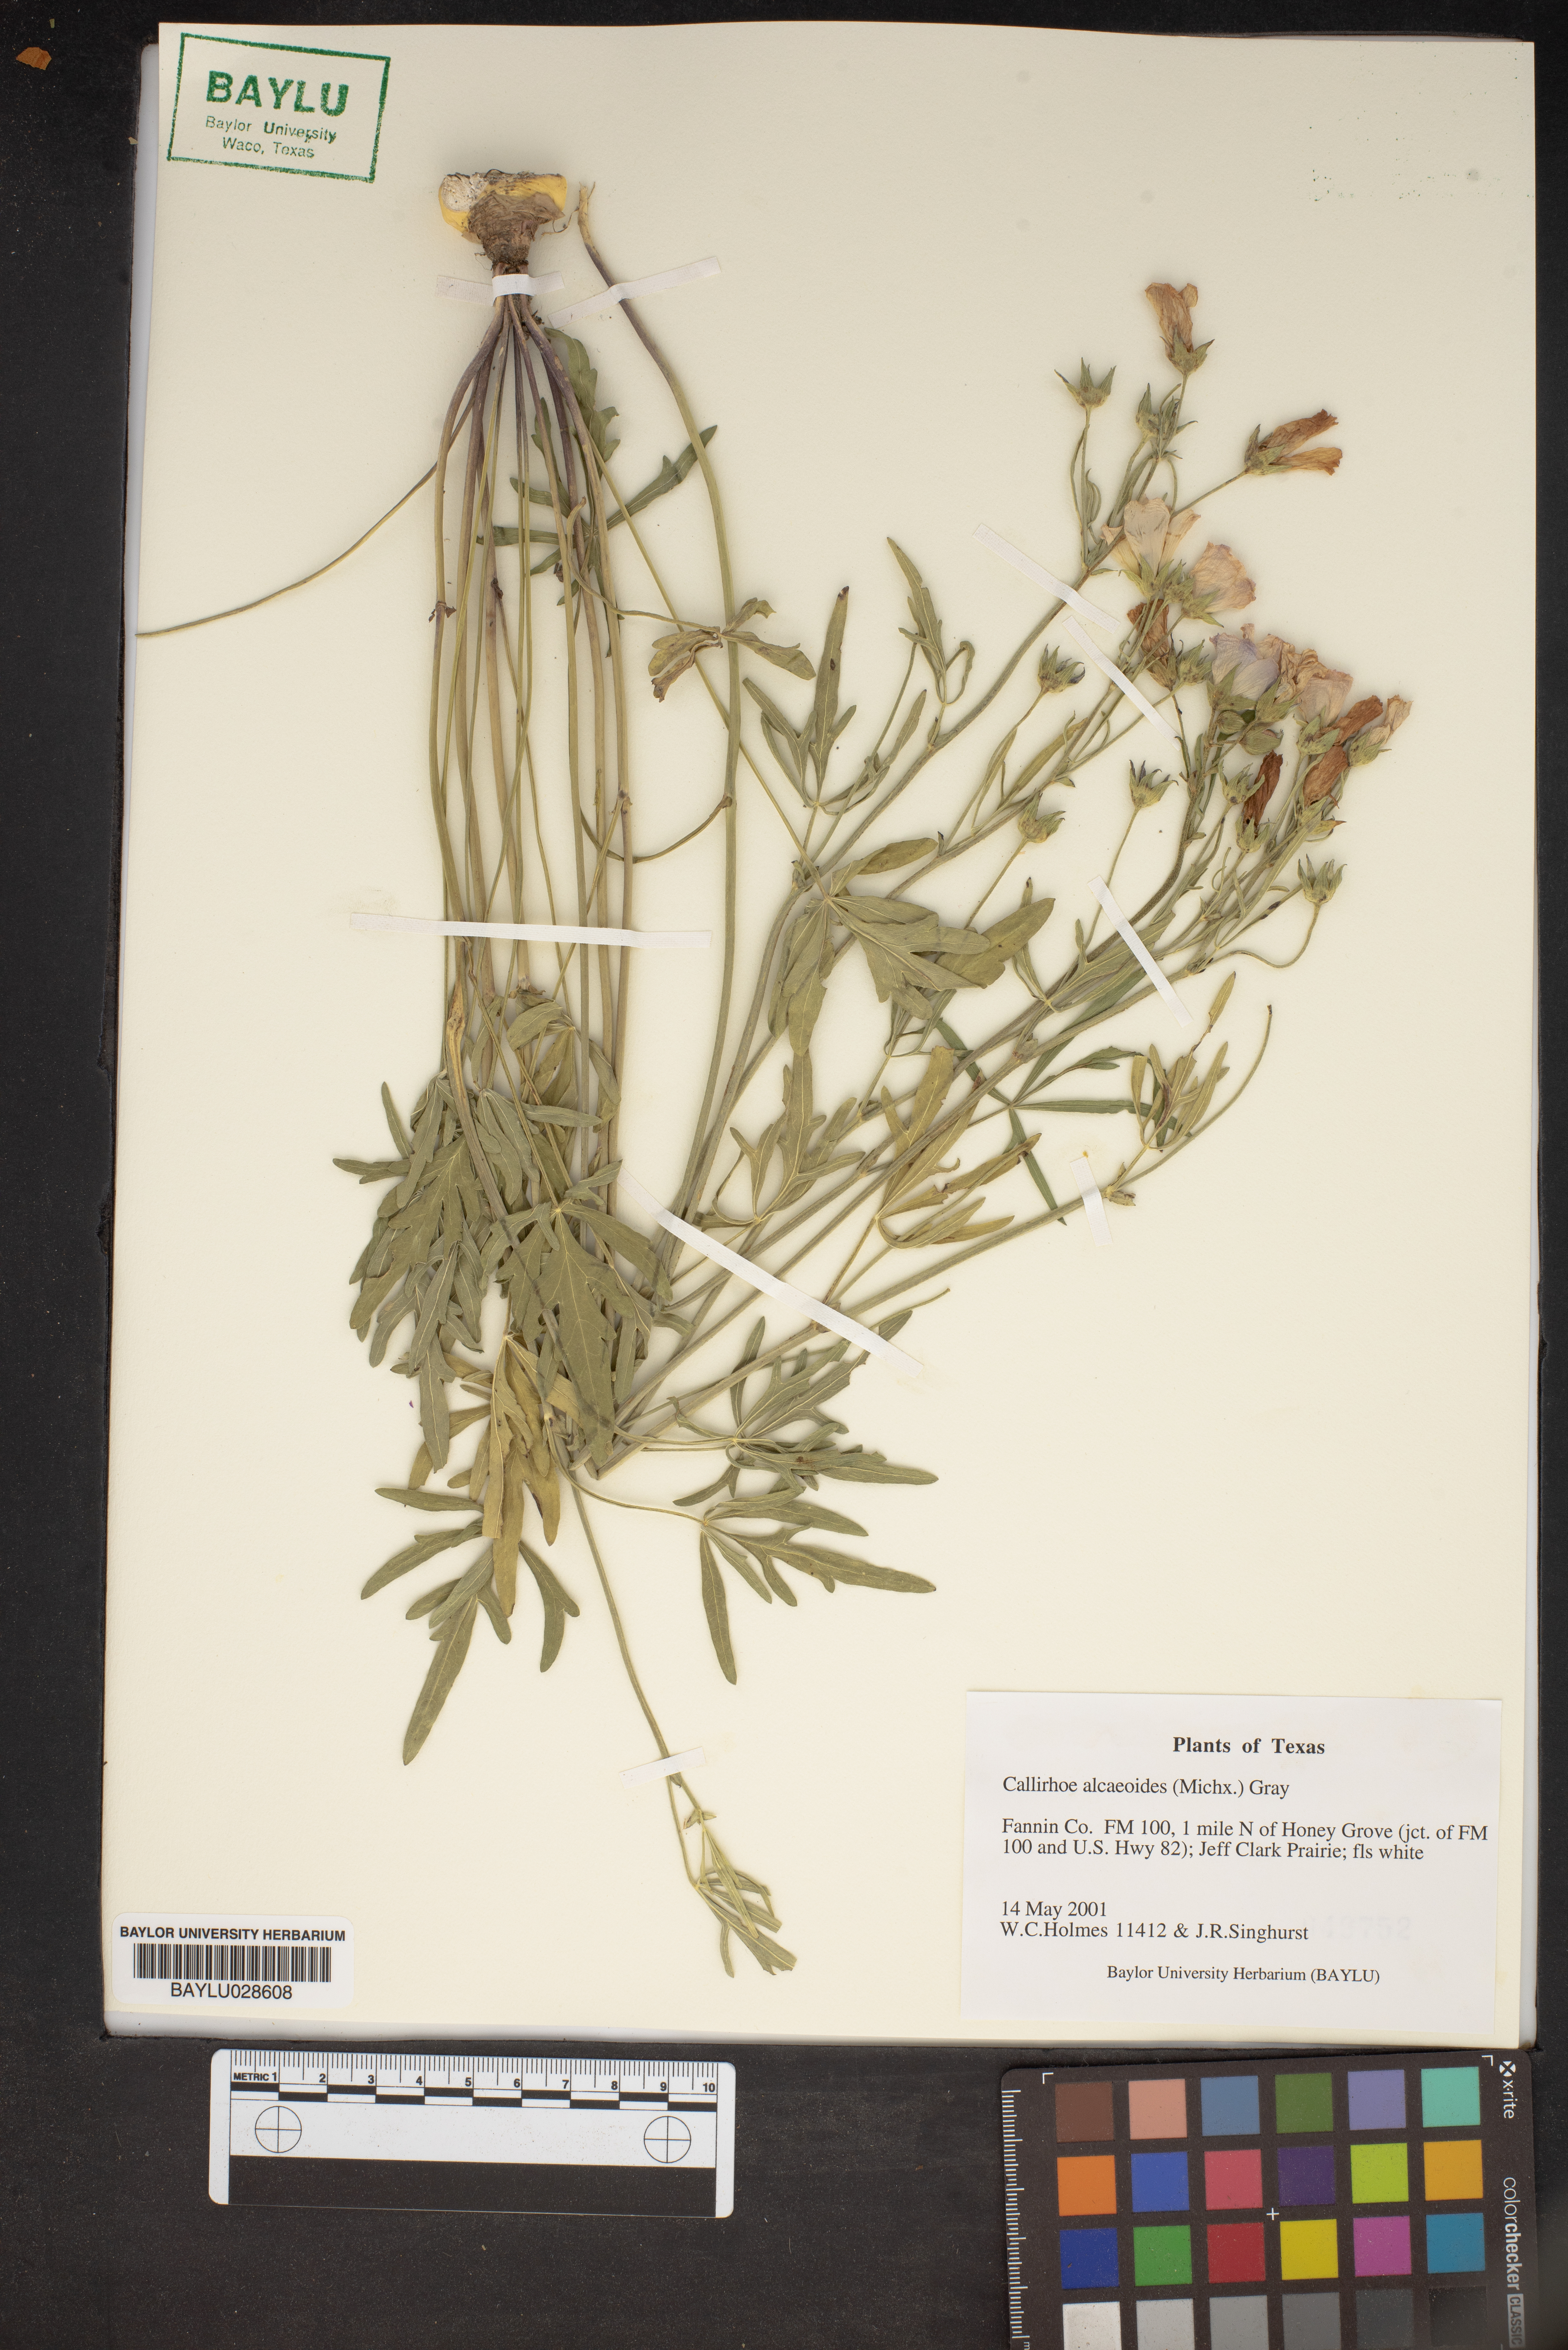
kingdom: Plantae
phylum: Tracheophyta
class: Magnoliopsida
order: Malvales
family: Malvaceae
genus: Callirhoe
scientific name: Callirhoe alcaeoides
